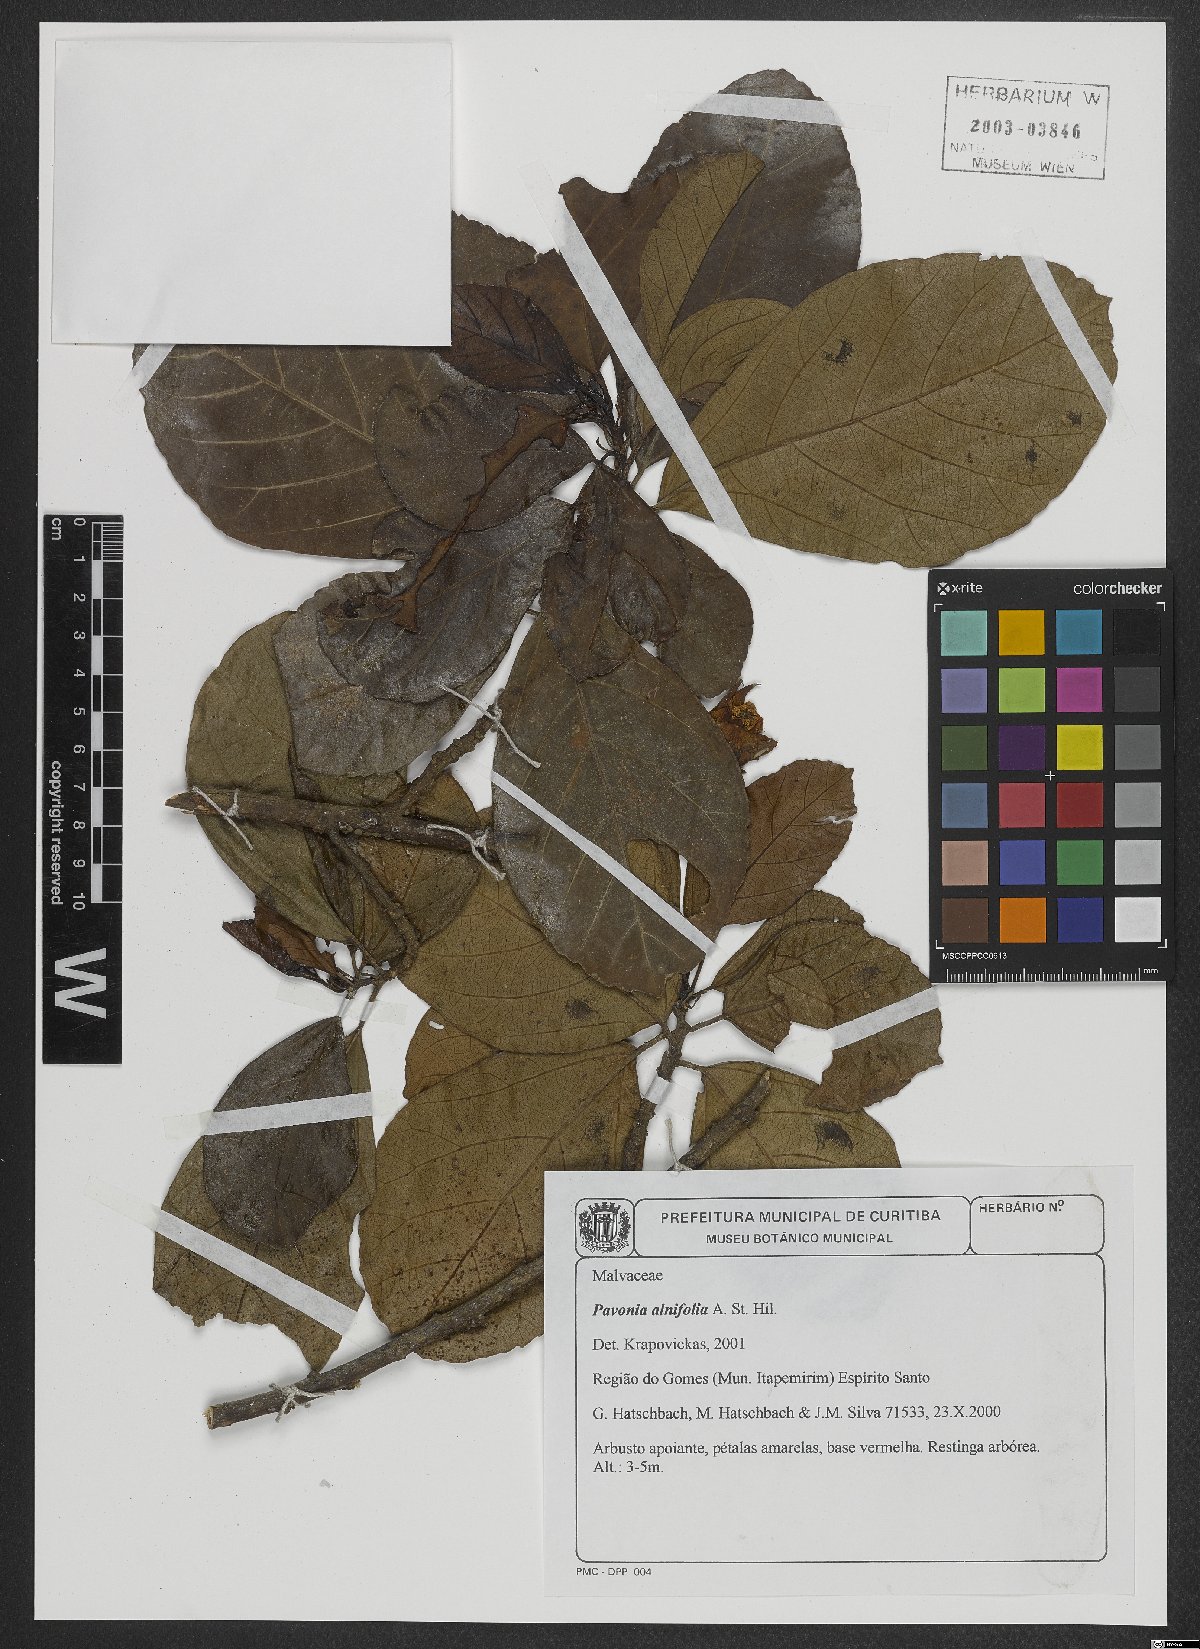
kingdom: Plantae
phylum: Tracheophyta
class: Magnoliopsida
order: Malvales
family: Malvaceae
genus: Pavonia
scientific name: Pavonia alnifolia
